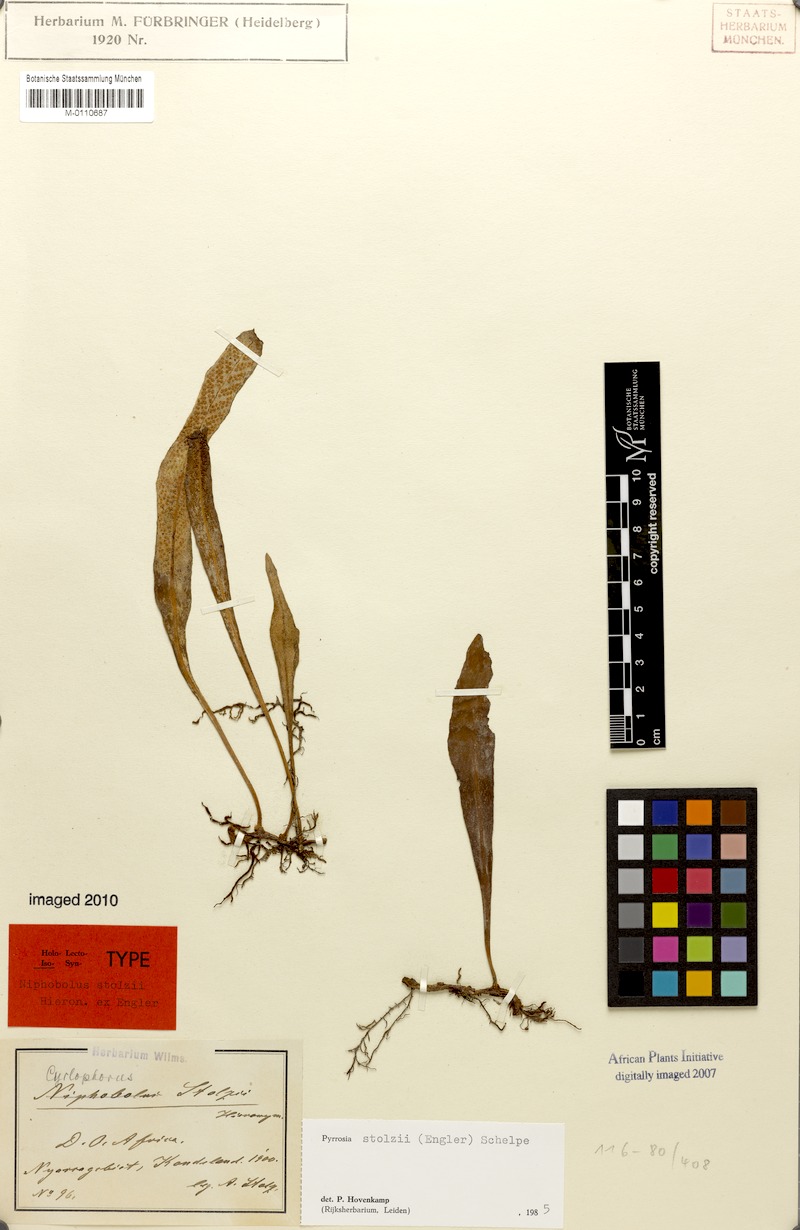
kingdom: Plantae
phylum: Tracheophyta
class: Polypodiopsida
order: Polypodiales
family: Polypodiaceae
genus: Pyrrosia
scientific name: Pyrrosia stolzii
